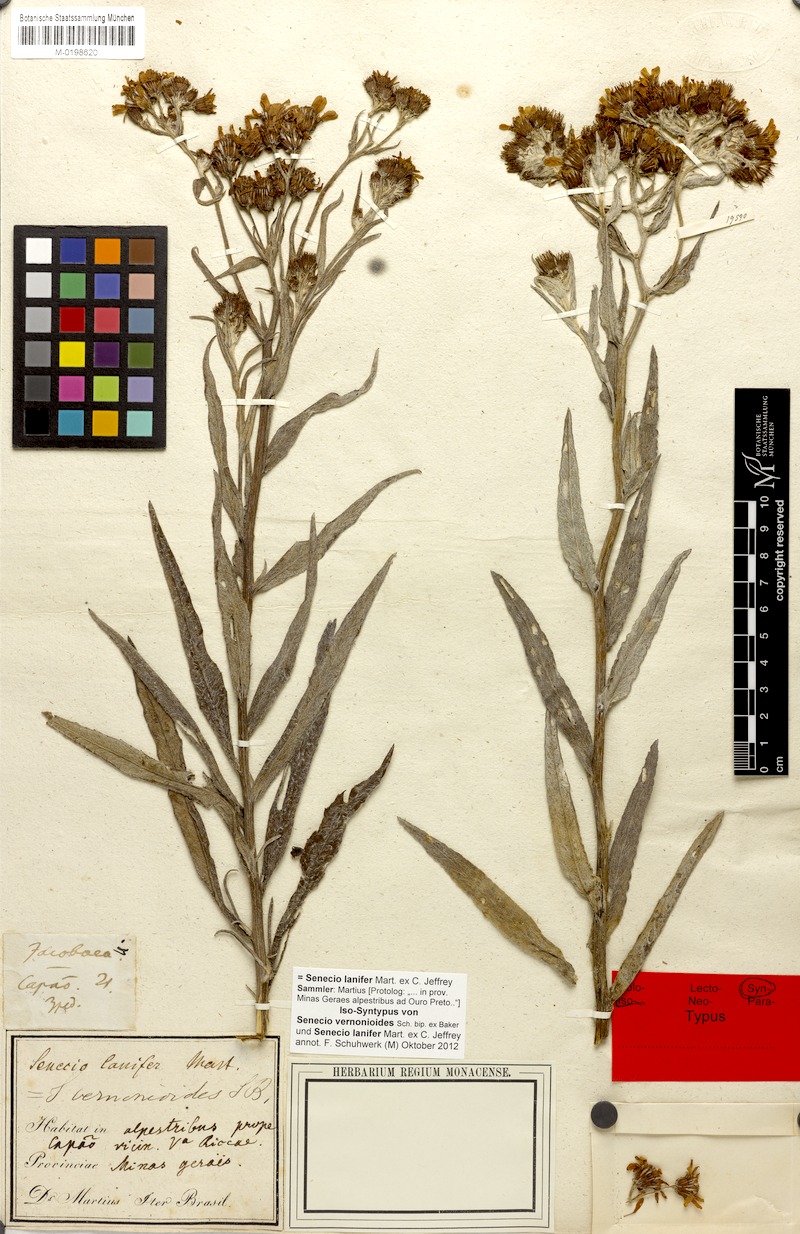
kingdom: Plantae
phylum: Tracheophyta
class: Magnoliopsida
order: Asterales
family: Asteraceae
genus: Senecio
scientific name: Senecio lanifer
